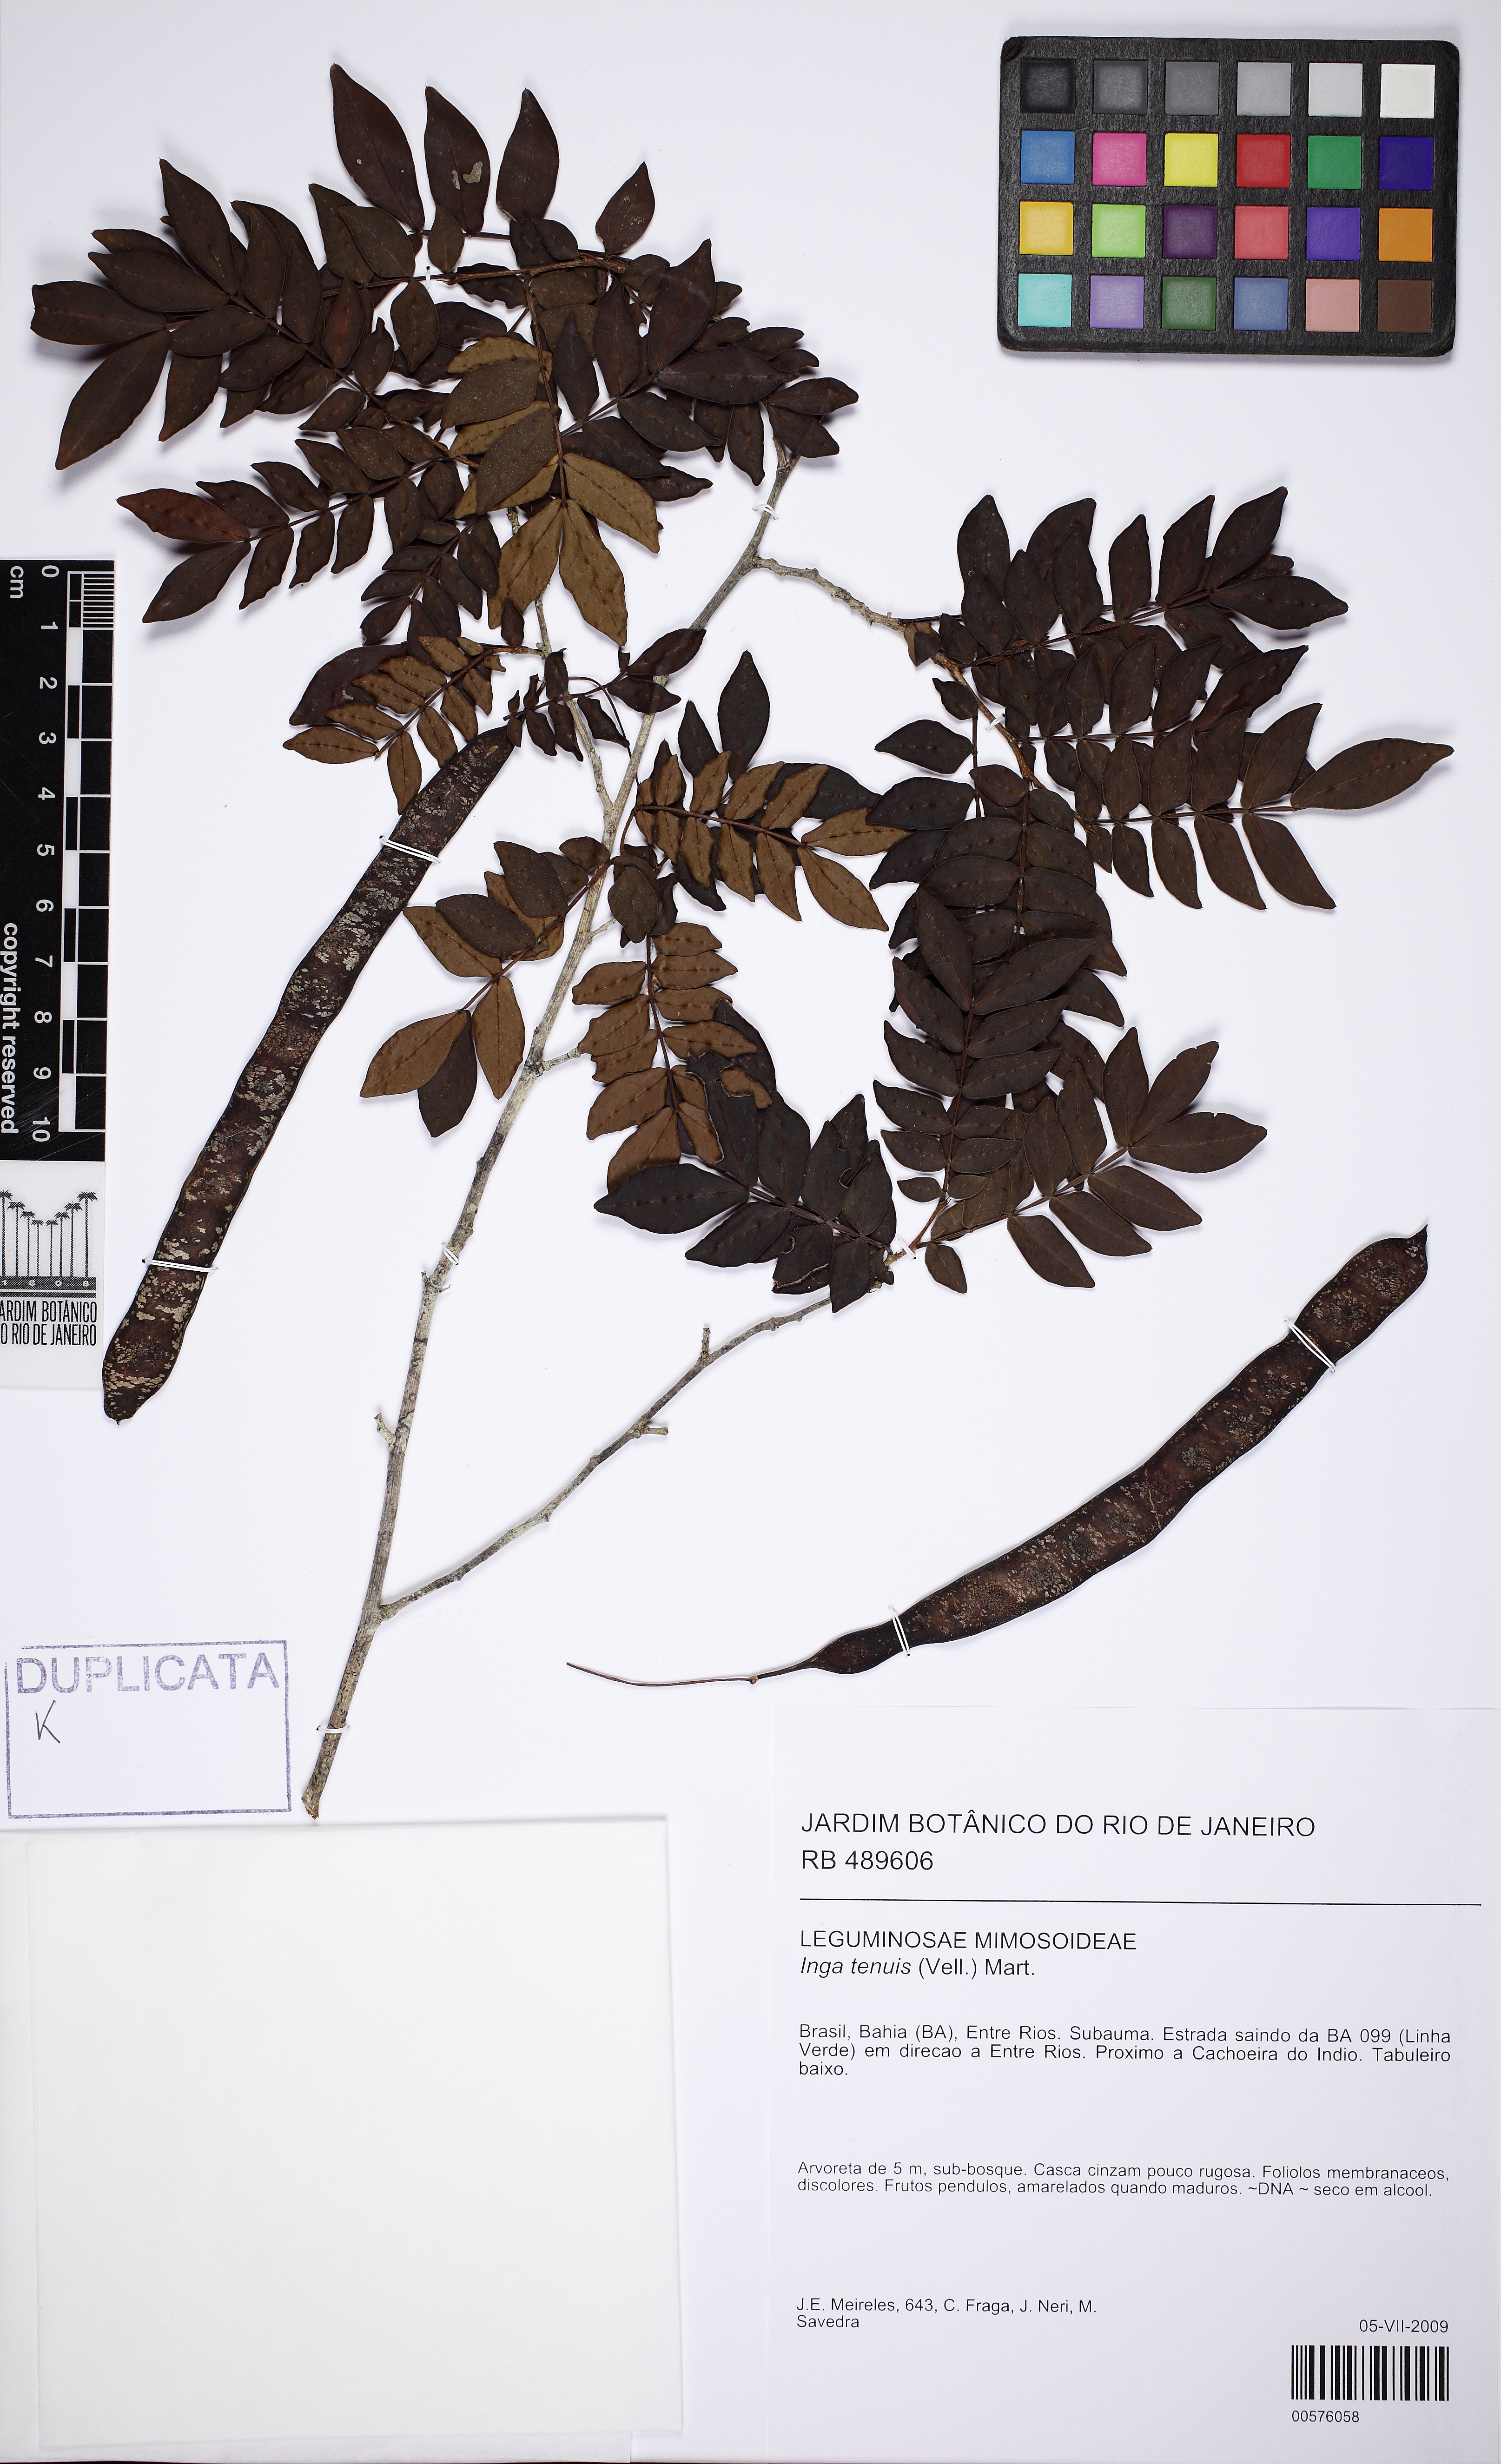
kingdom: Plantae
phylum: Tracheophyta
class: Magnoliopsida
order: Fabales
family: Fabaceae
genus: Inga
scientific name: Inga tenuis
